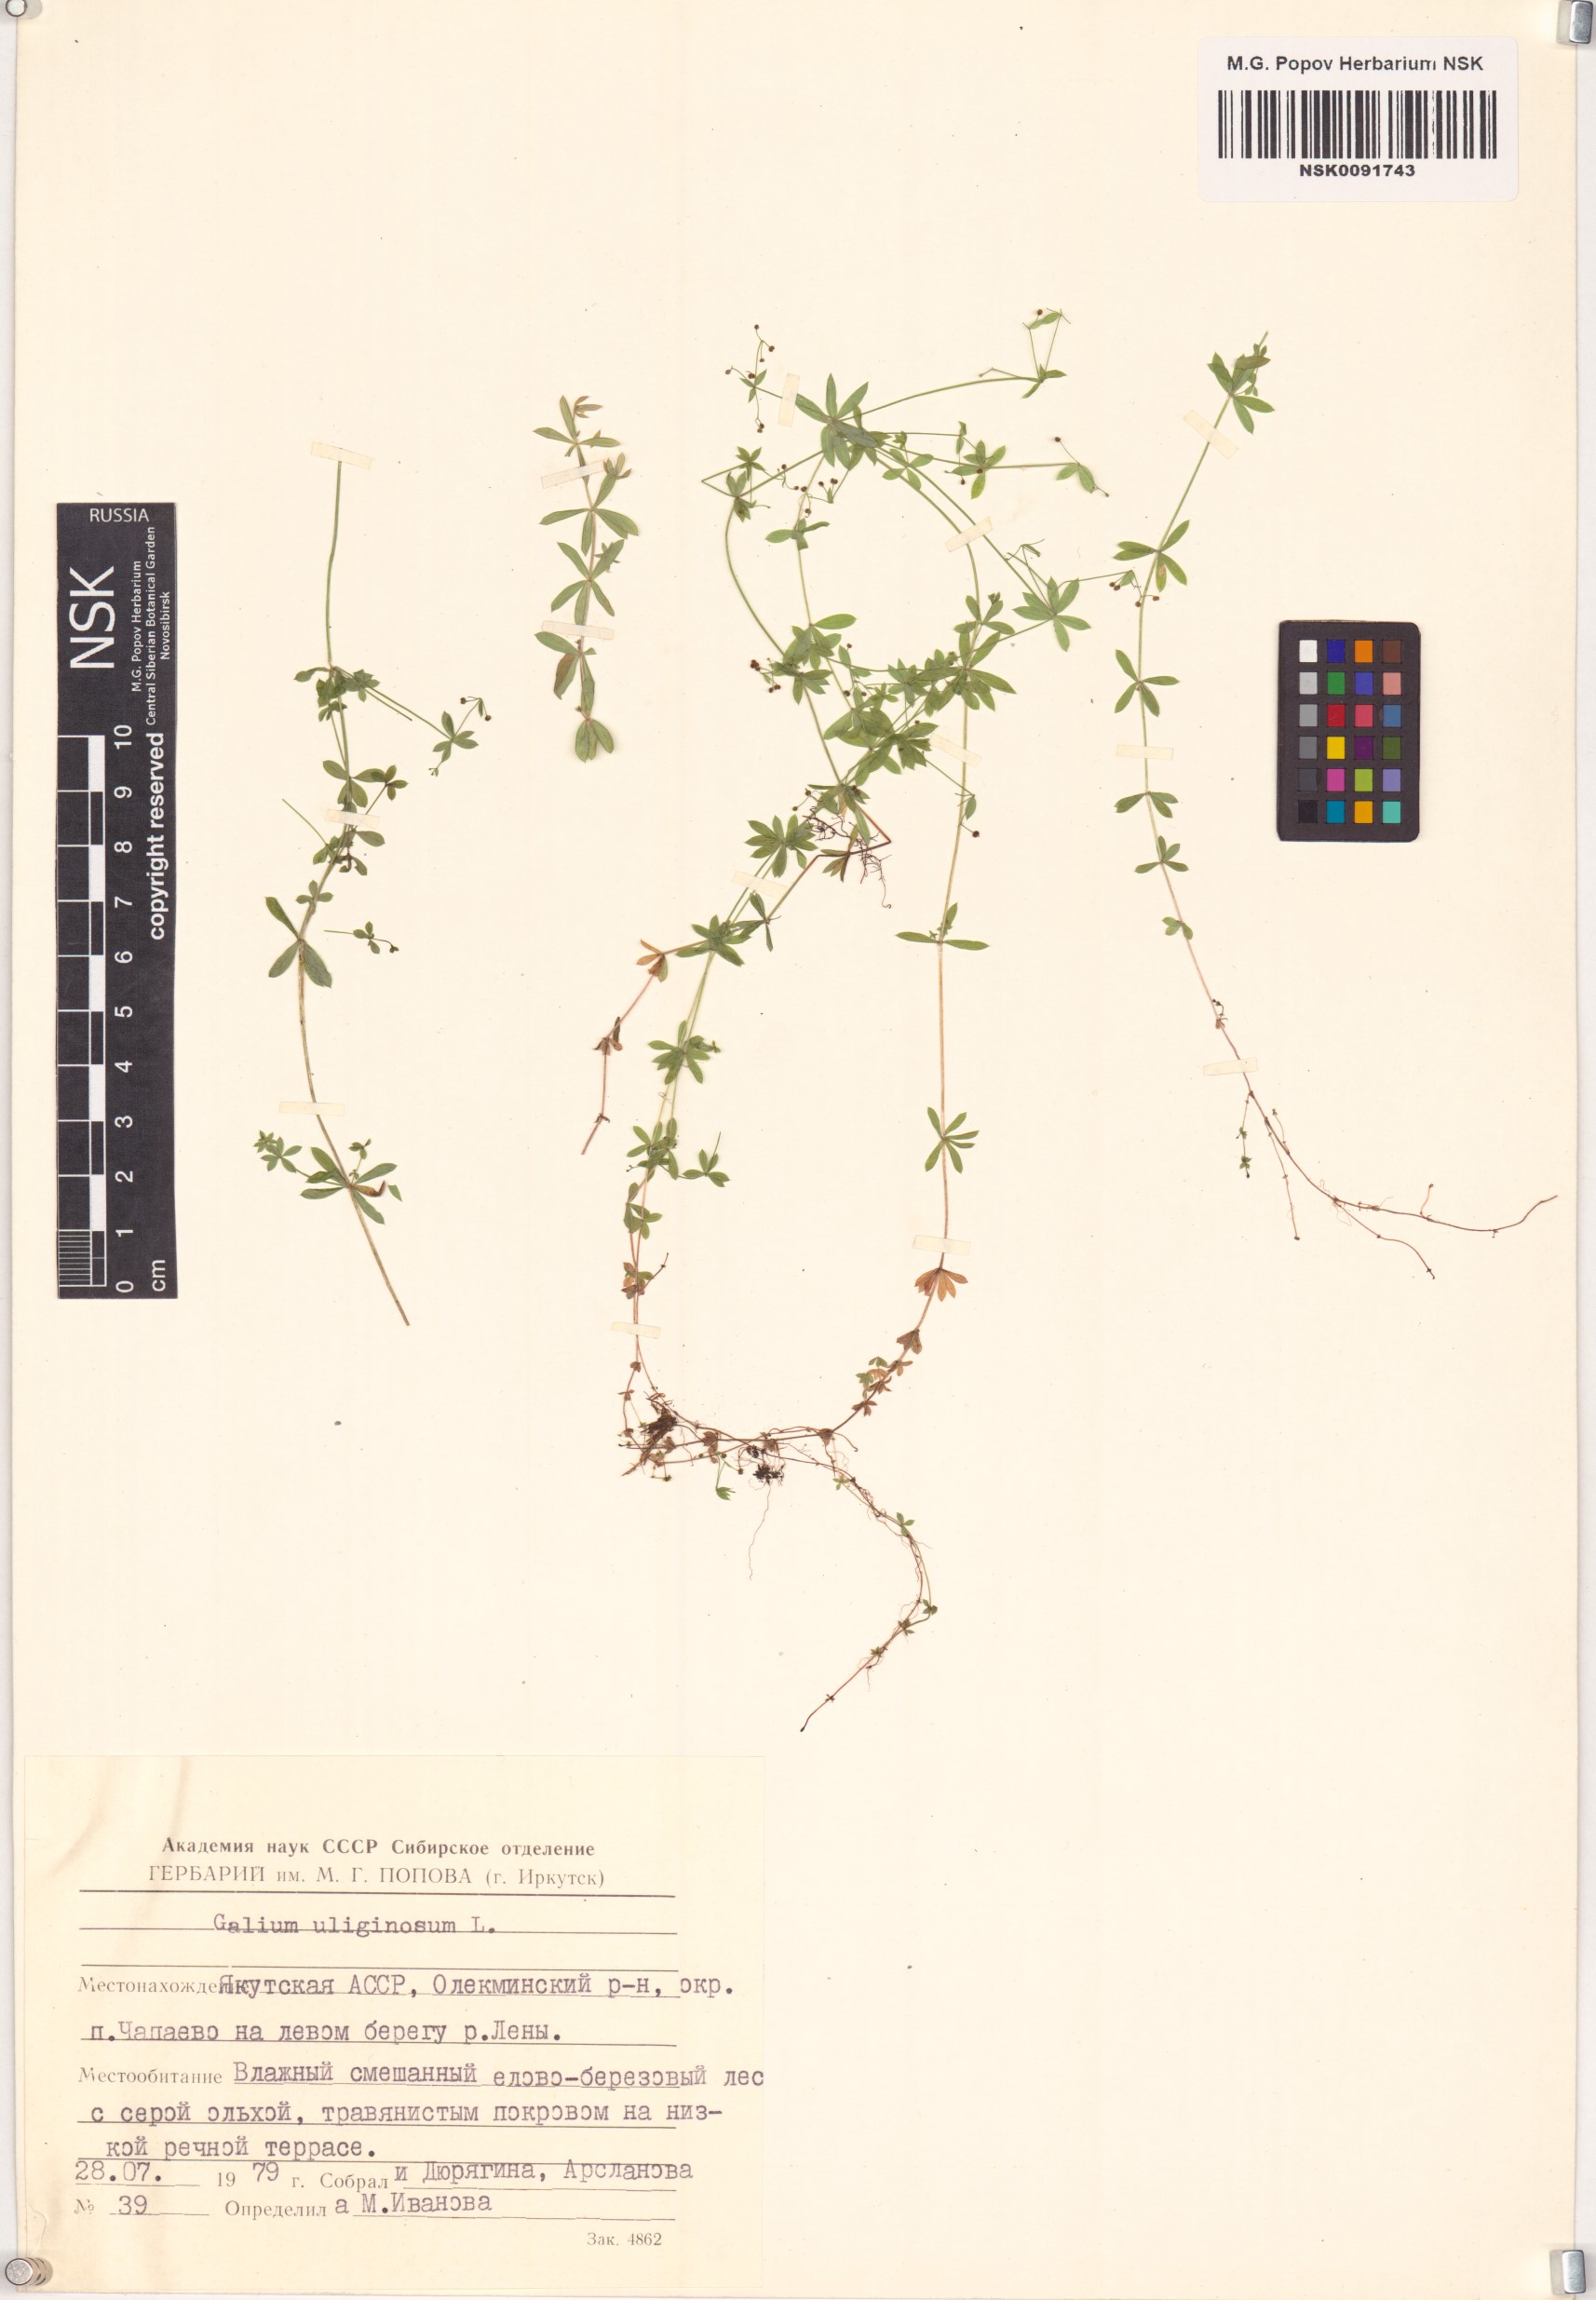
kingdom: Plantae
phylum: Tracheophyta
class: Magnoliopsida
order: Gentianales
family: Rubiaceae
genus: Galium
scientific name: Galium uliginosum
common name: Fen bedstraw
